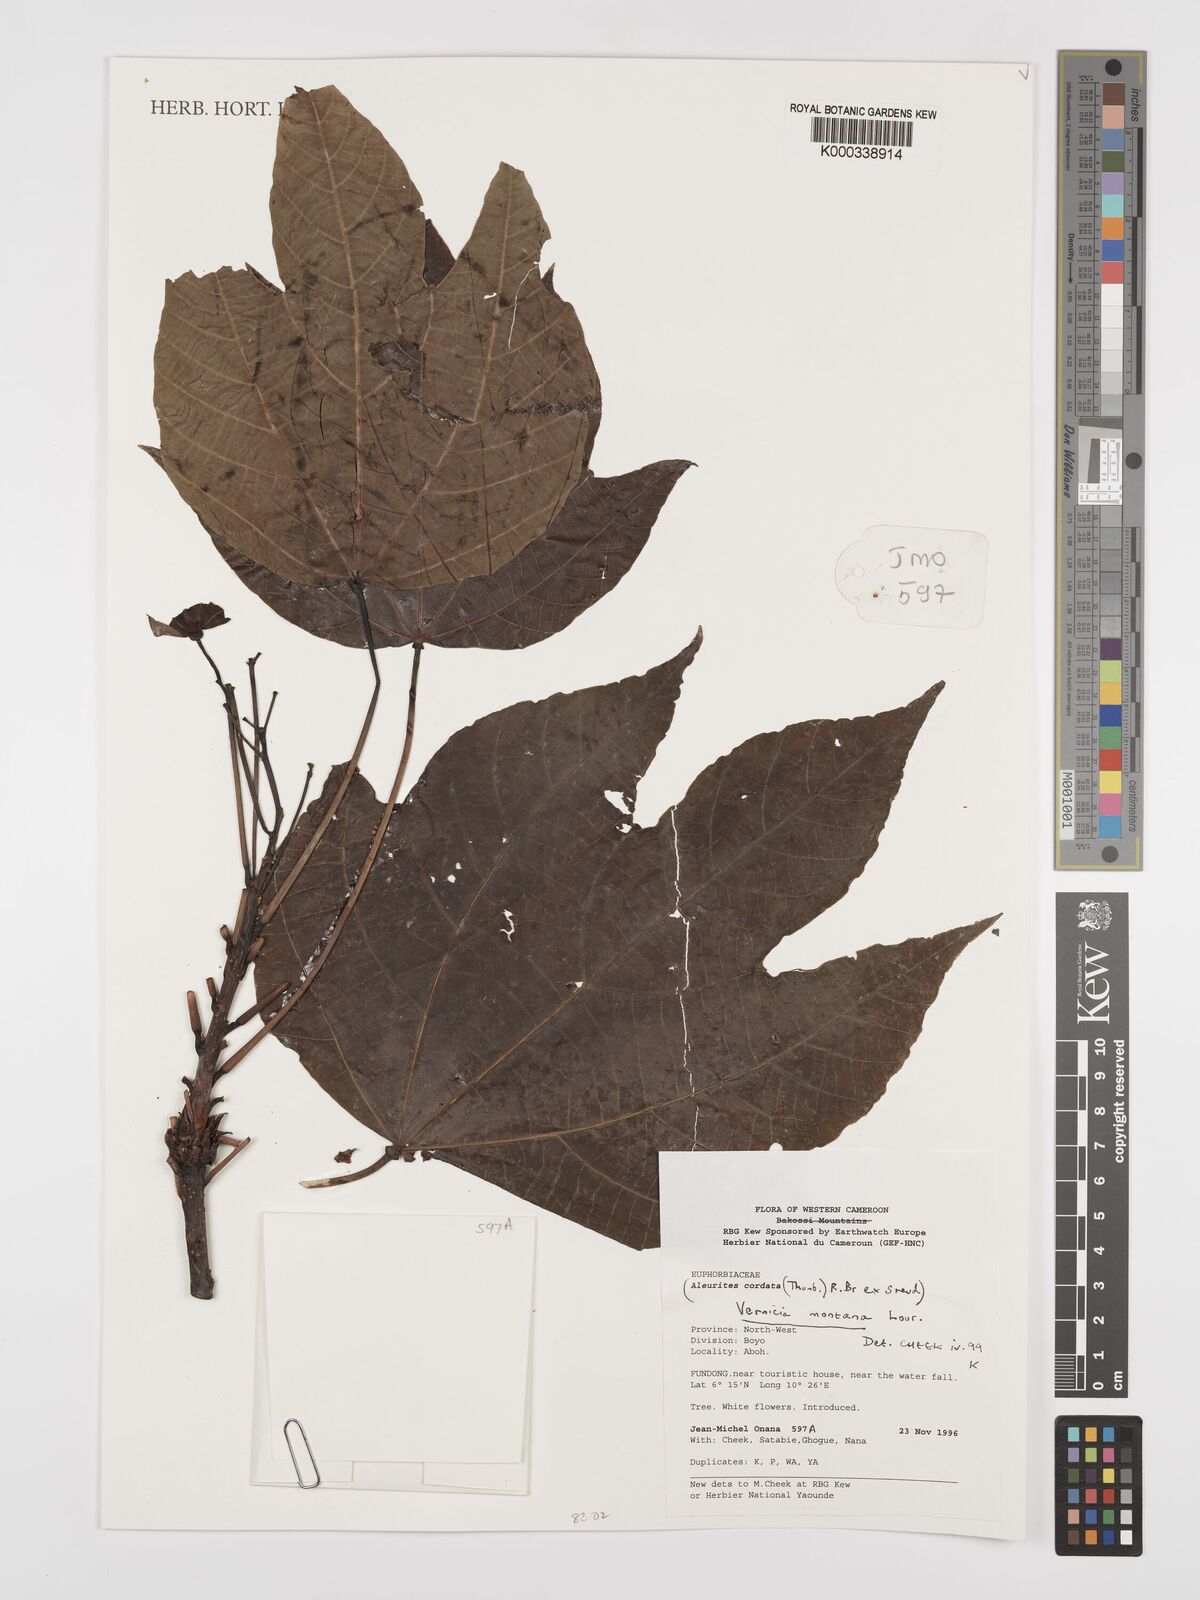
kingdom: Plantae
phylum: Tracheophyta
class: Magnoliopsida
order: Malpighiales
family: Euphorbiaceae
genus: Vernicia
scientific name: Vernicia montana
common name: Mu oil tree
